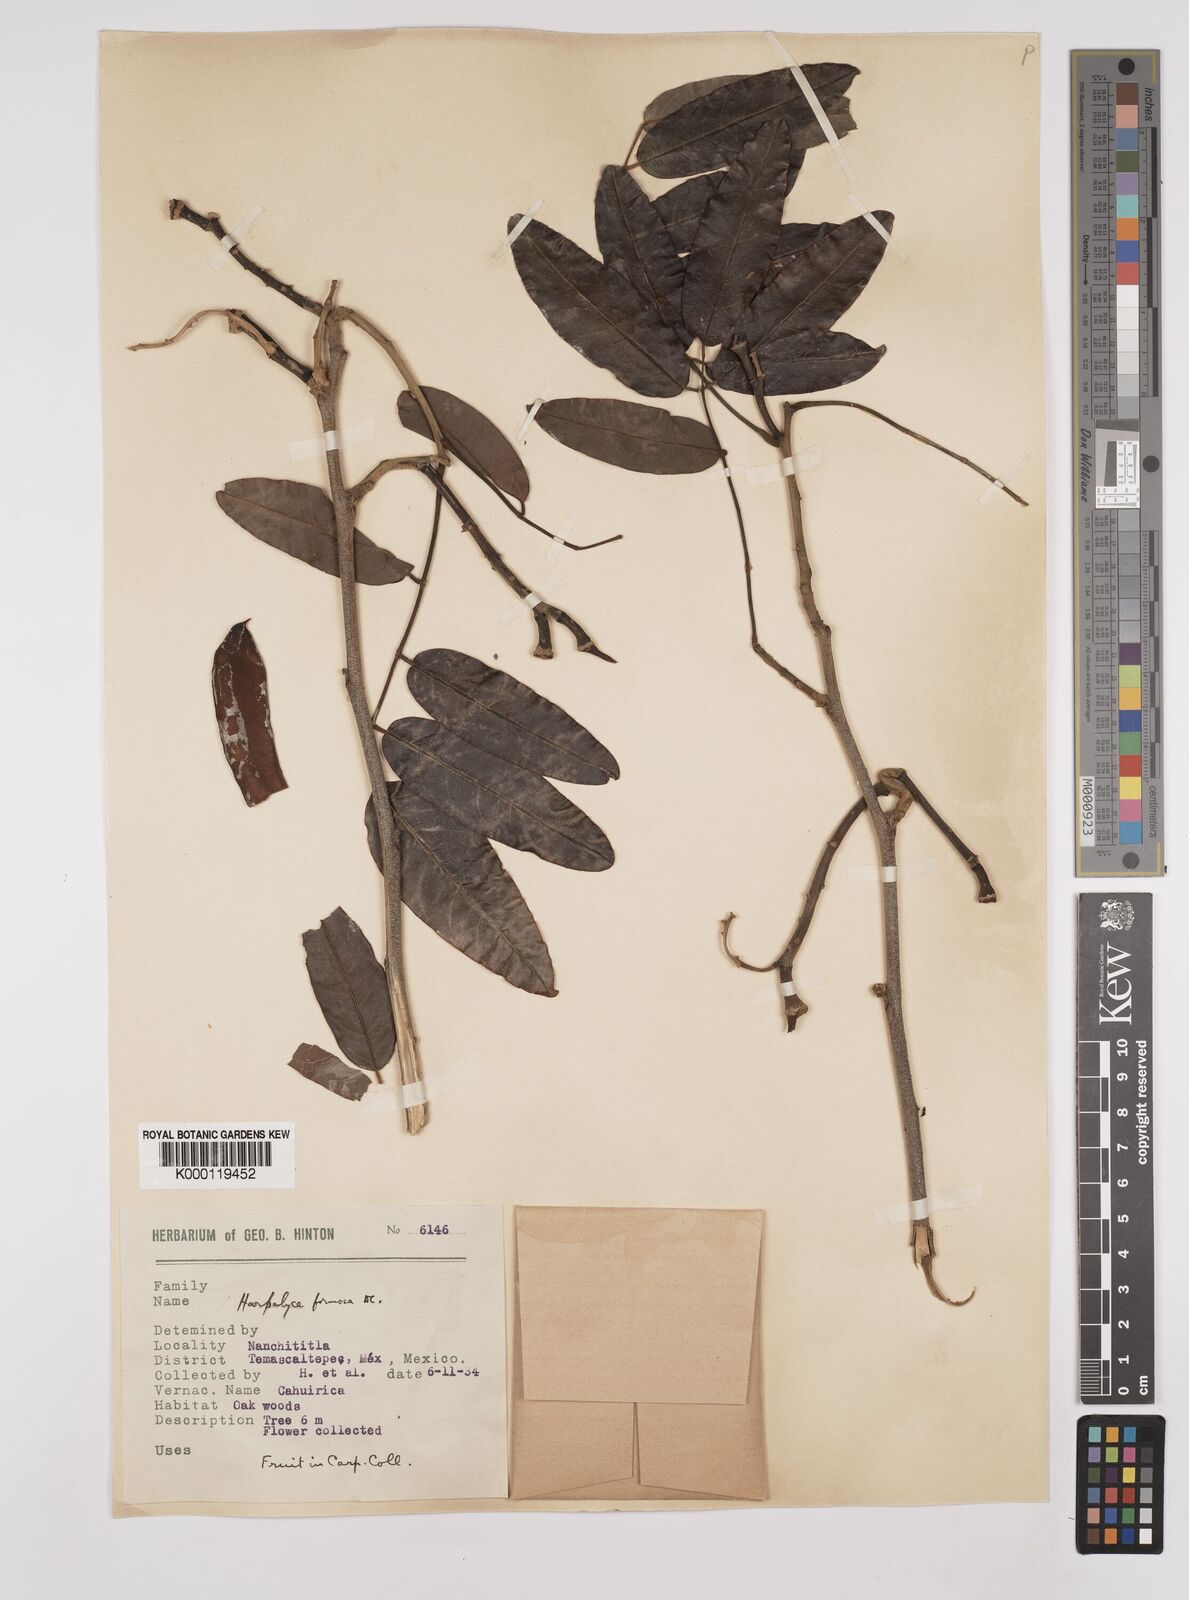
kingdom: Plantae
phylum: Tracheophyta
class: Magnoliopsida
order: Fabales
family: Fabaceae
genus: Harpalyce
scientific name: Harpalyce formosa
